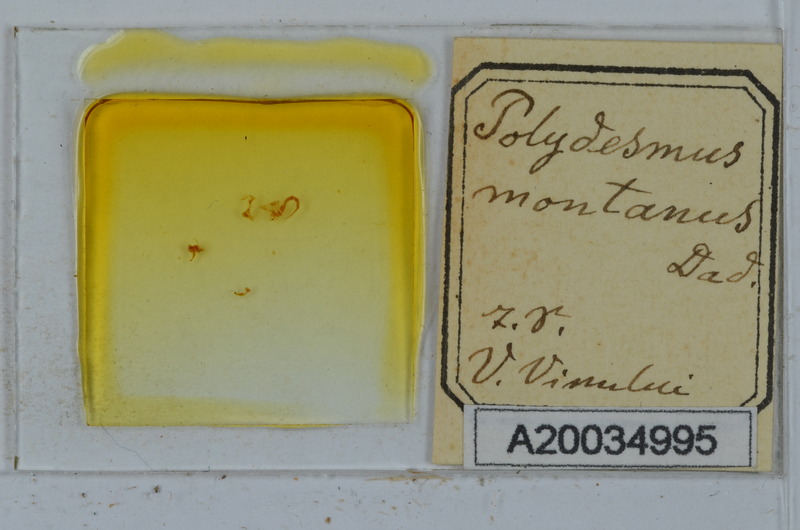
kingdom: Animalia
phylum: Arthropoda
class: Diplopoda
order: Polydesmida
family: Polydesmidae
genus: Polydesmus
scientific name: Polydesmus montanus
